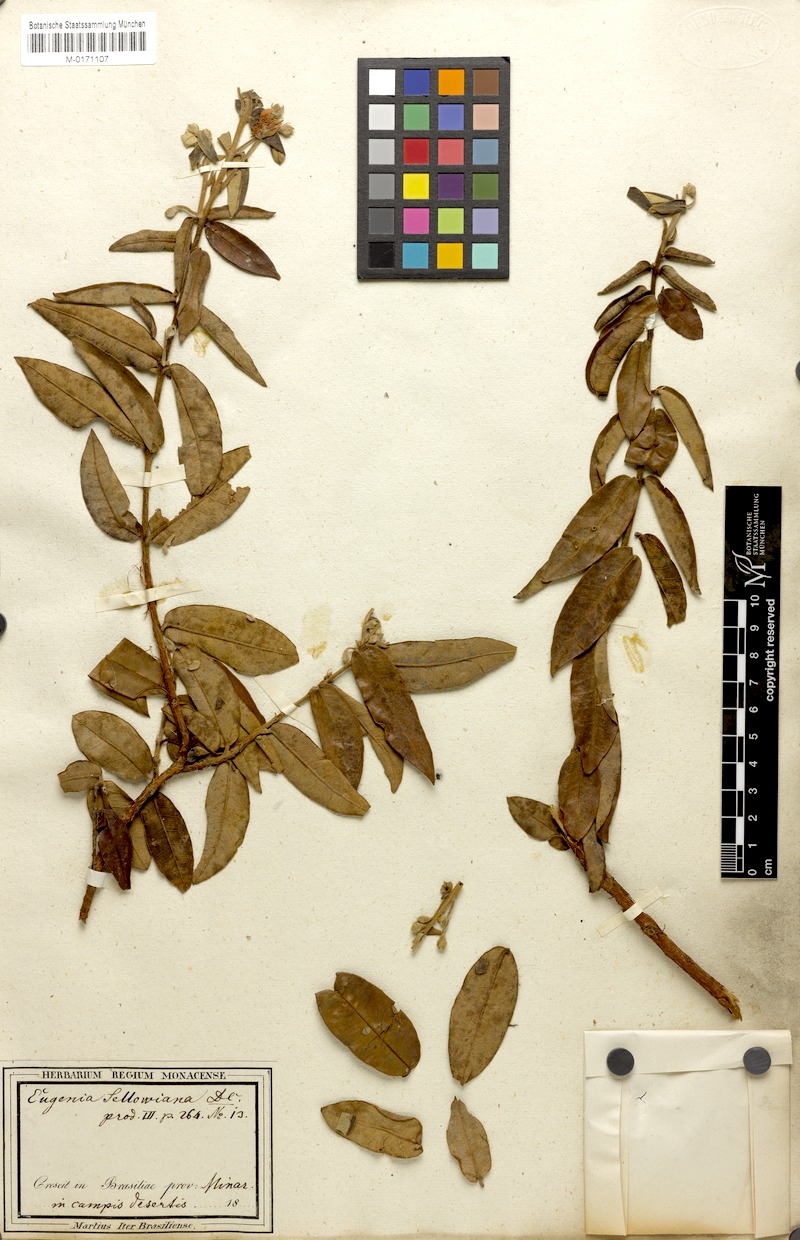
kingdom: Plantae
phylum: Tracheophyta
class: Magnoliopsida
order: Myrtales
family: Myrtaceae
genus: Psidium
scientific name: Psidium salutare
